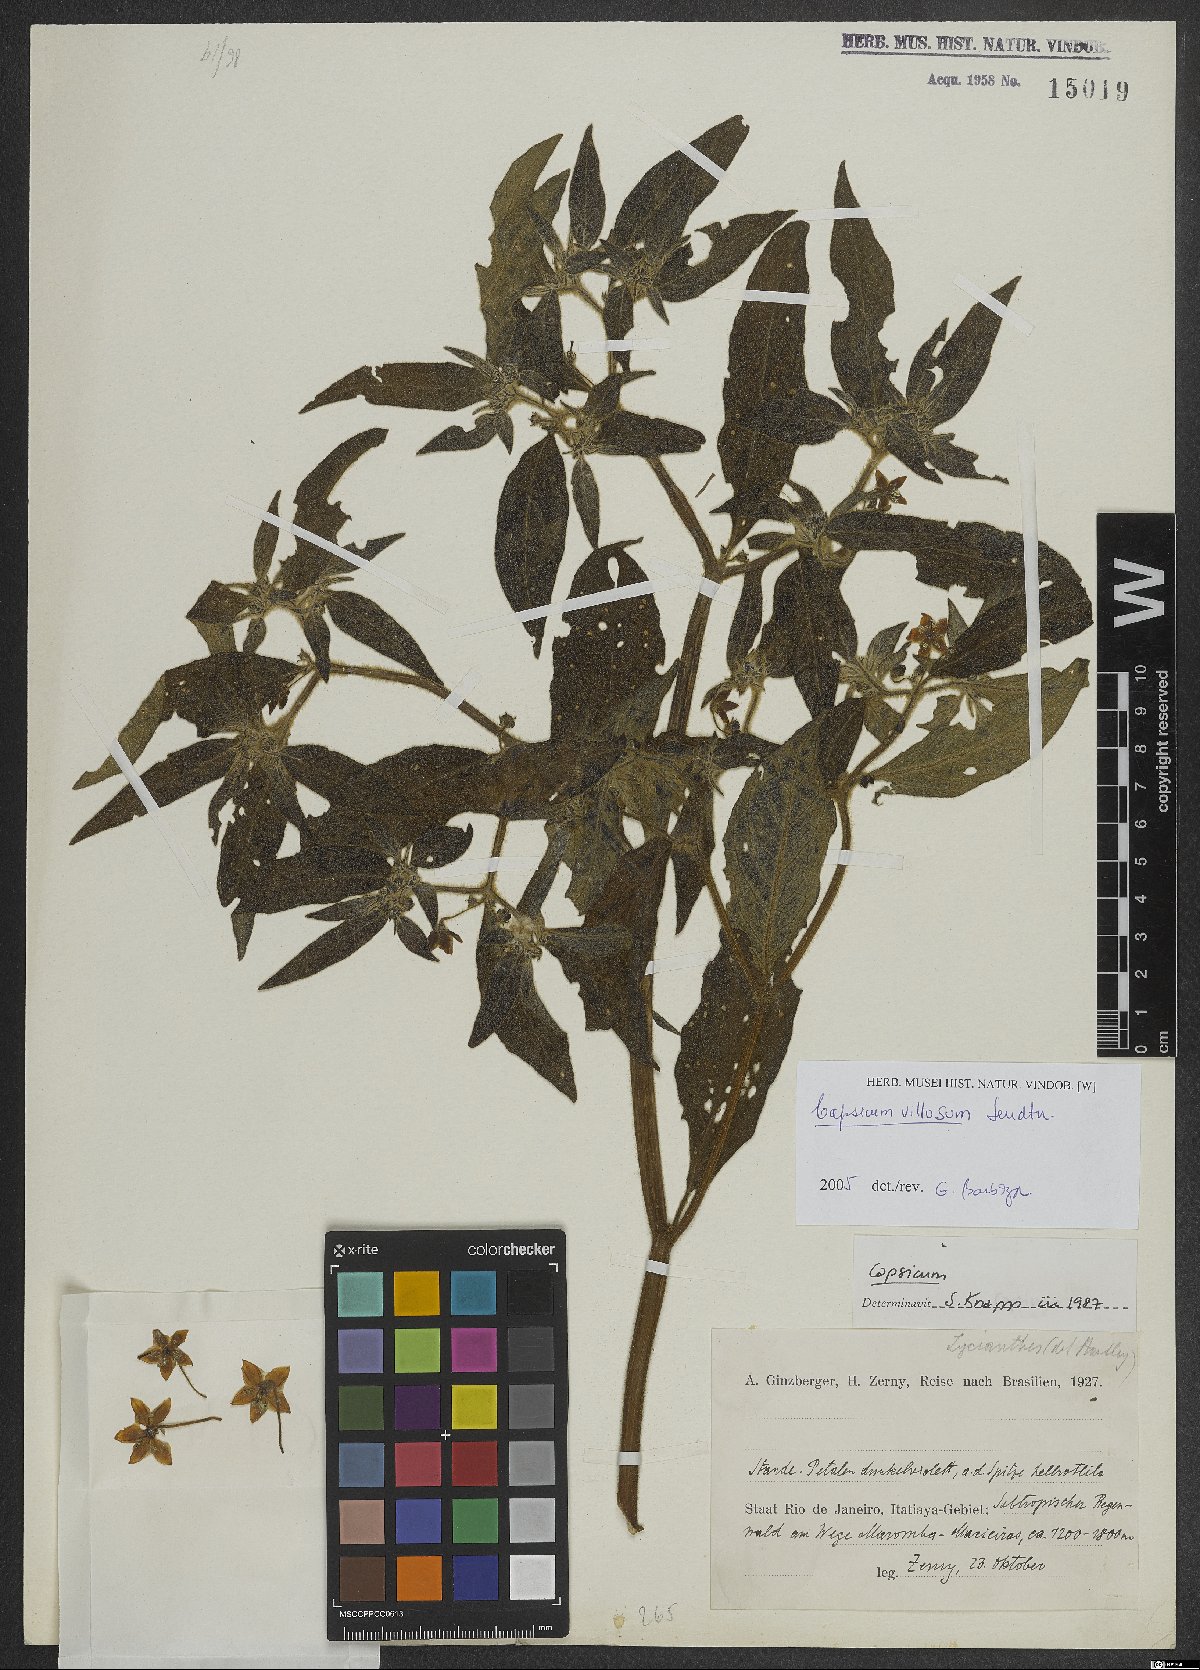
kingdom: Plantae
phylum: Tracheophyta
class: Magnoliopsida
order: Solanales
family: Solanaceae
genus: Capsicum
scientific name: Capsicum villosum
